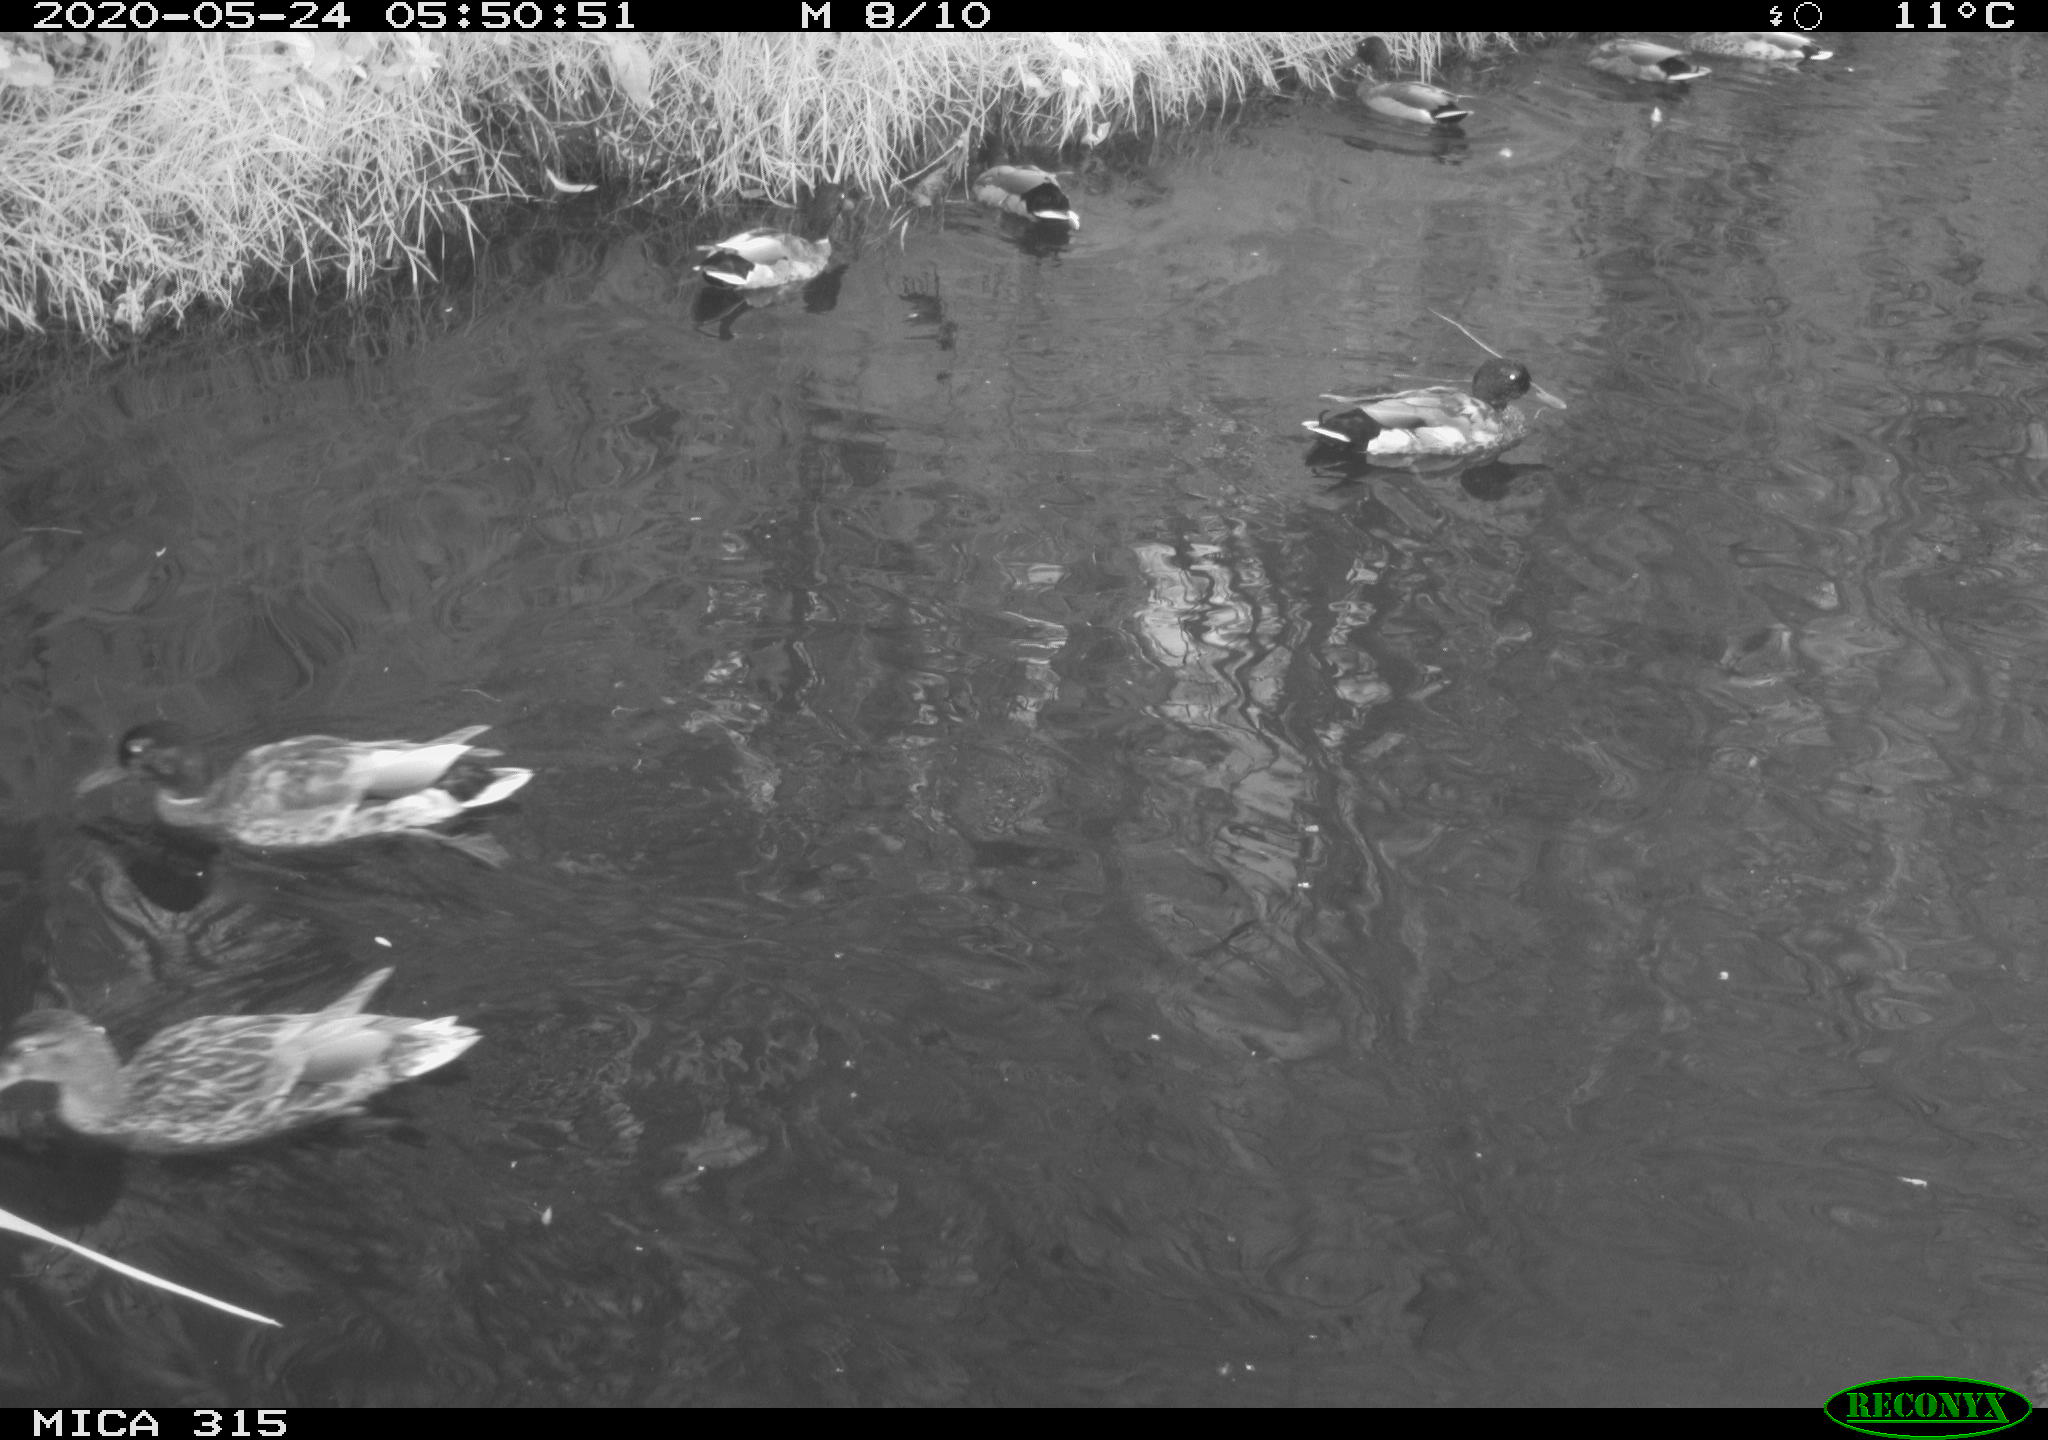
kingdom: Animalia
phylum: Chordata
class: Aves
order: Anseriformes
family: Anatidae
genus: Anas
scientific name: Anas platyrhynchos
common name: Mallard
